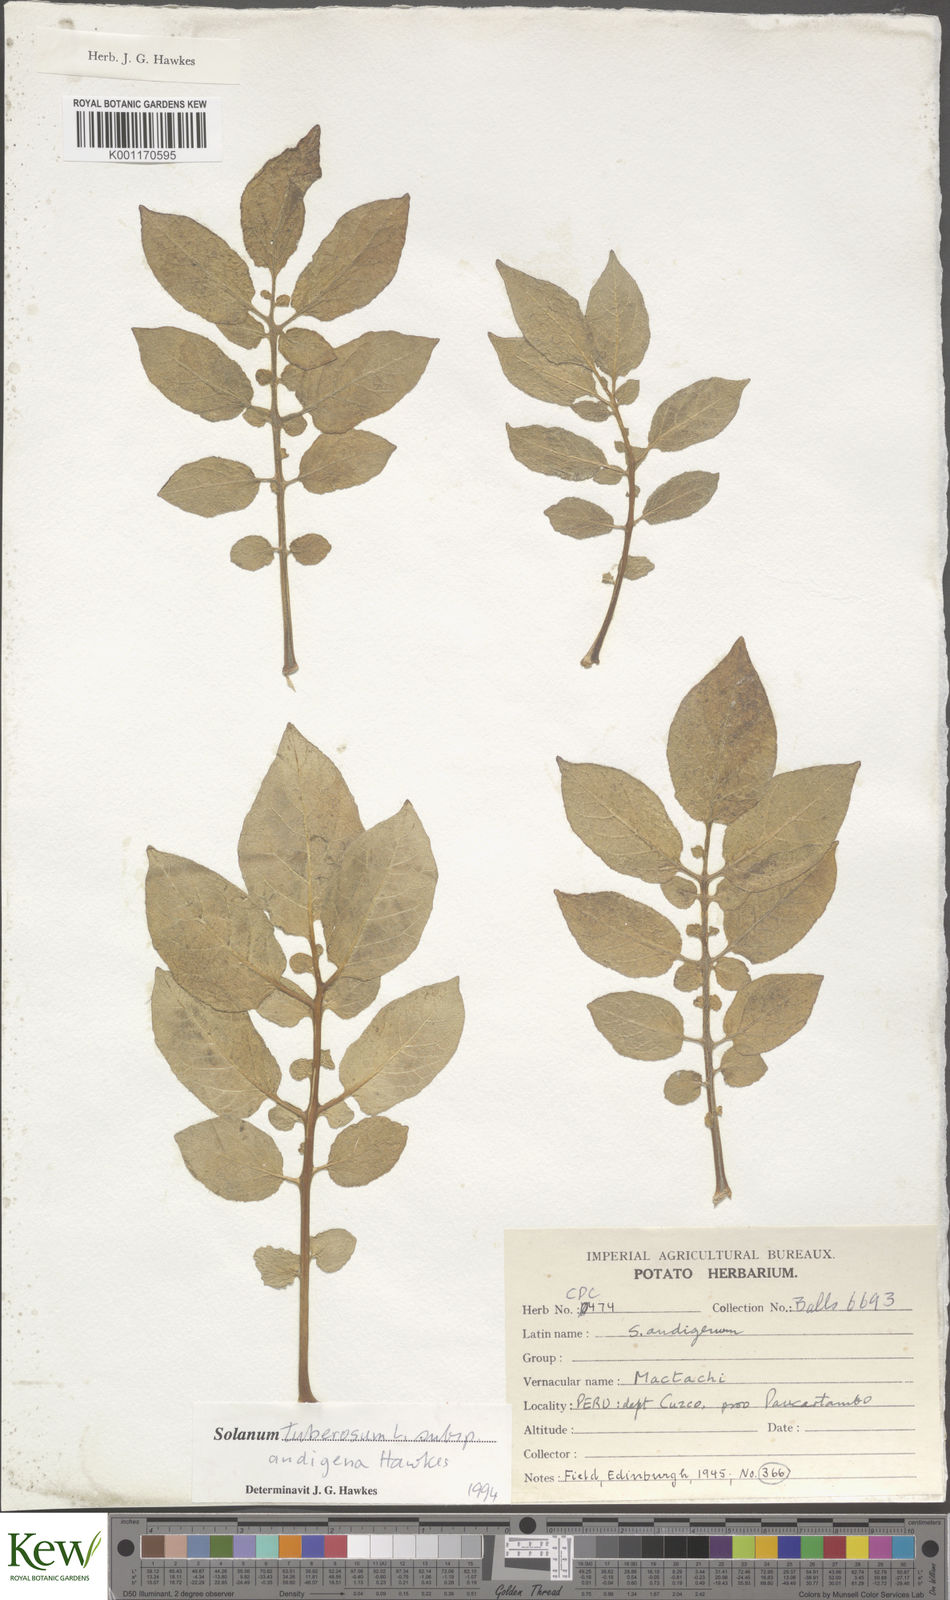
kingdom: Plantae
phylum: Tracheophyta
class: Magnoliopsida
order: Solanales
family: Solanaceae
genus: Solanum
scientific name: Solanum tuberosum
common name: Potato
